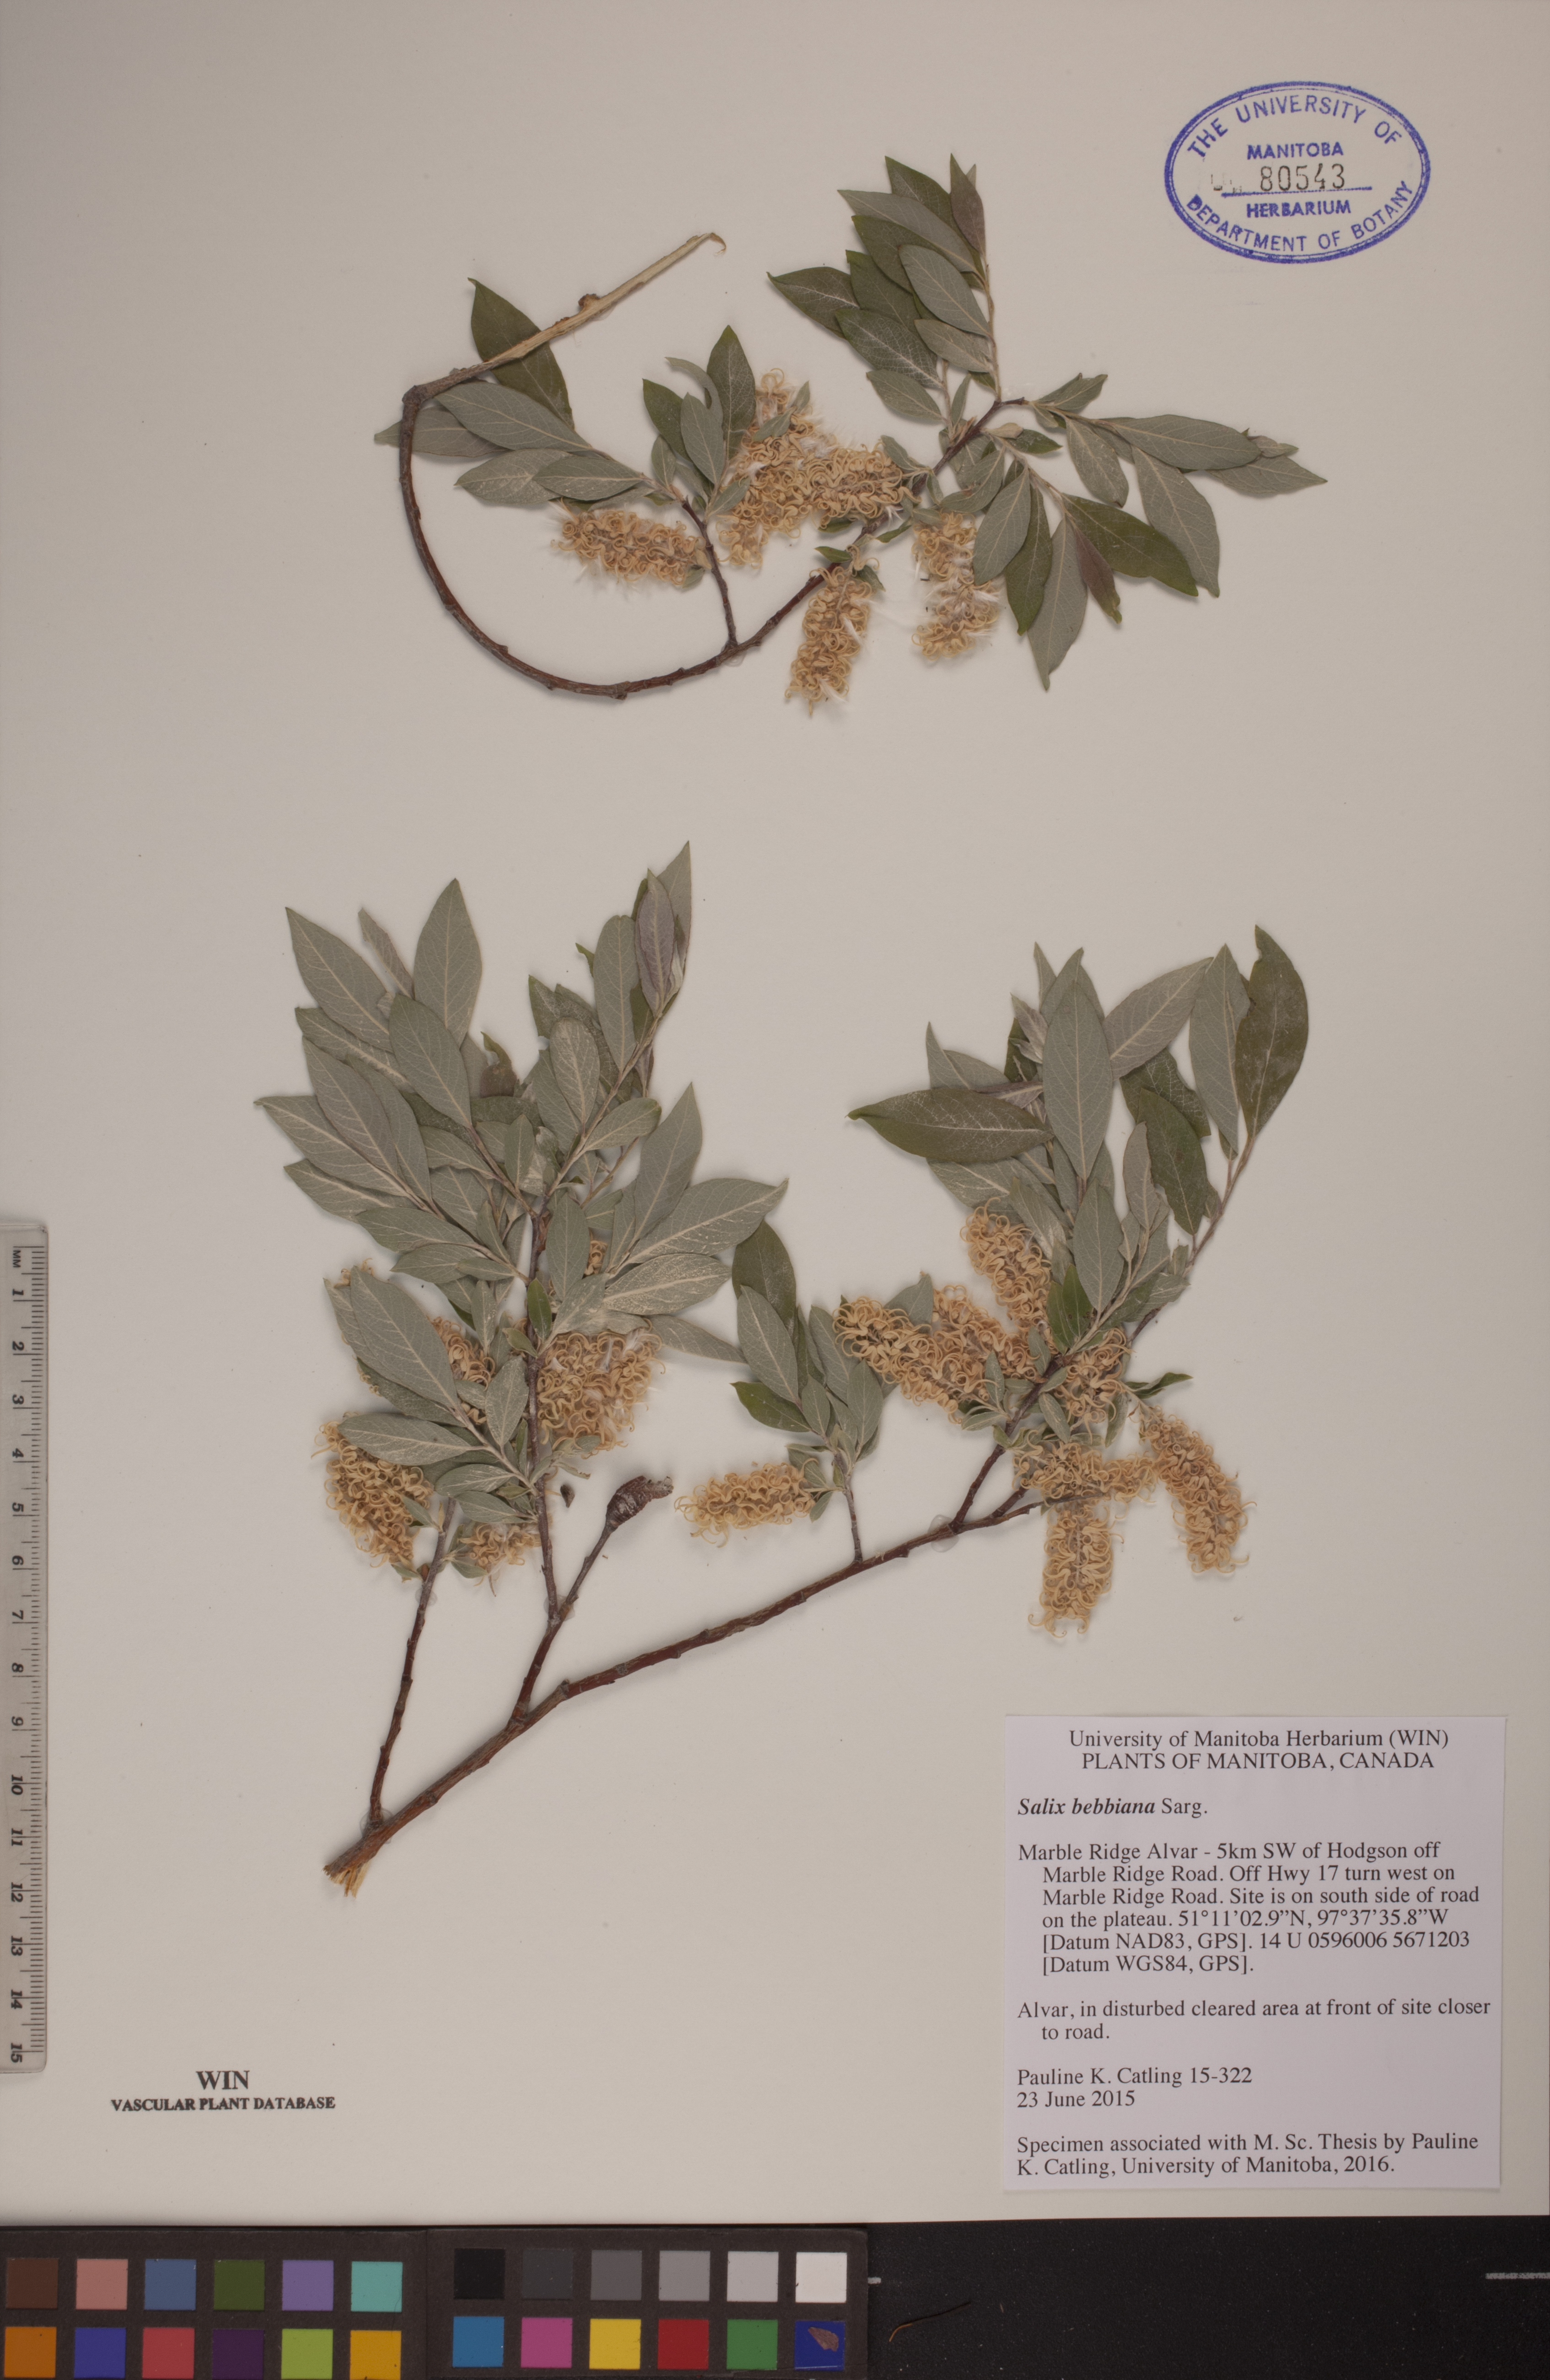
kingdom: Plantae
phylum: Tracheophyta
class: Magnoliopsida
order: Malpighiales
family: Salicaceae
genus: Salix
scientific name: Salix bebbiana
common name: Bebb's willow
